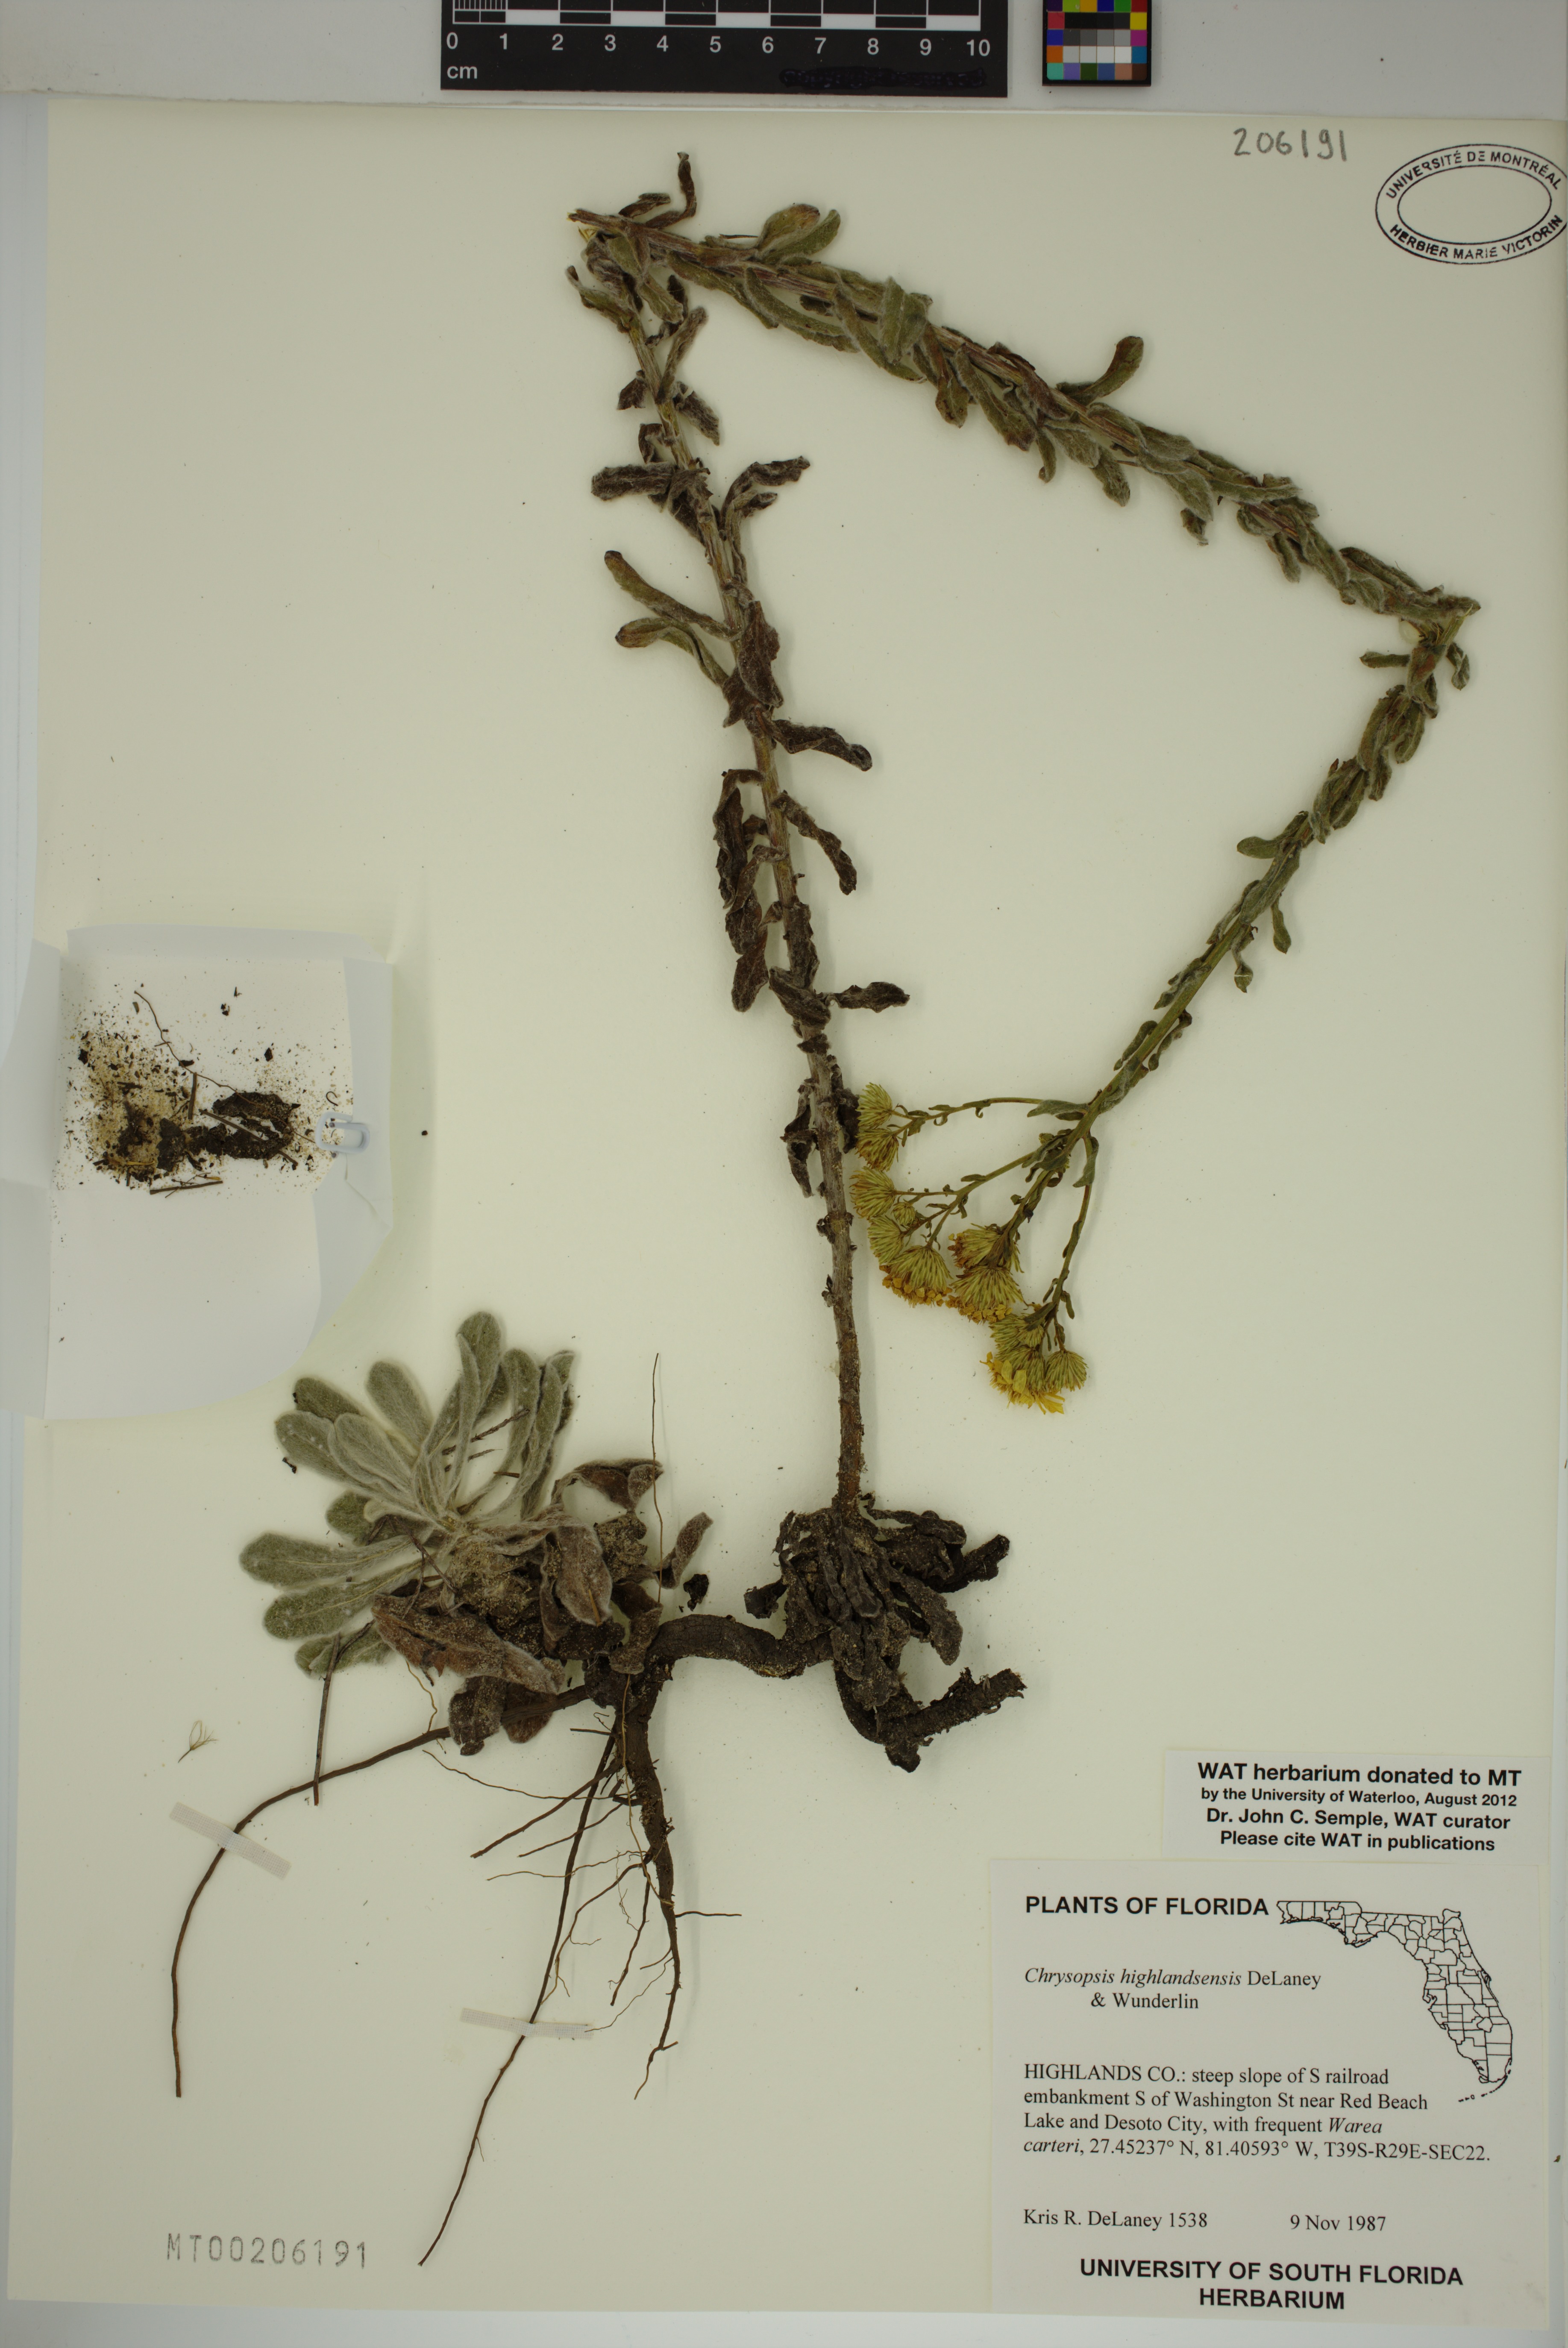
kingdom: Plantae
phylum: Tracheophyta
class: Magnoliopsida
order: Asterales
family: Asteraceae
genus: Chrysopsis
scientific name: Chrysopsis floridana
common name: Florida golden-aster
